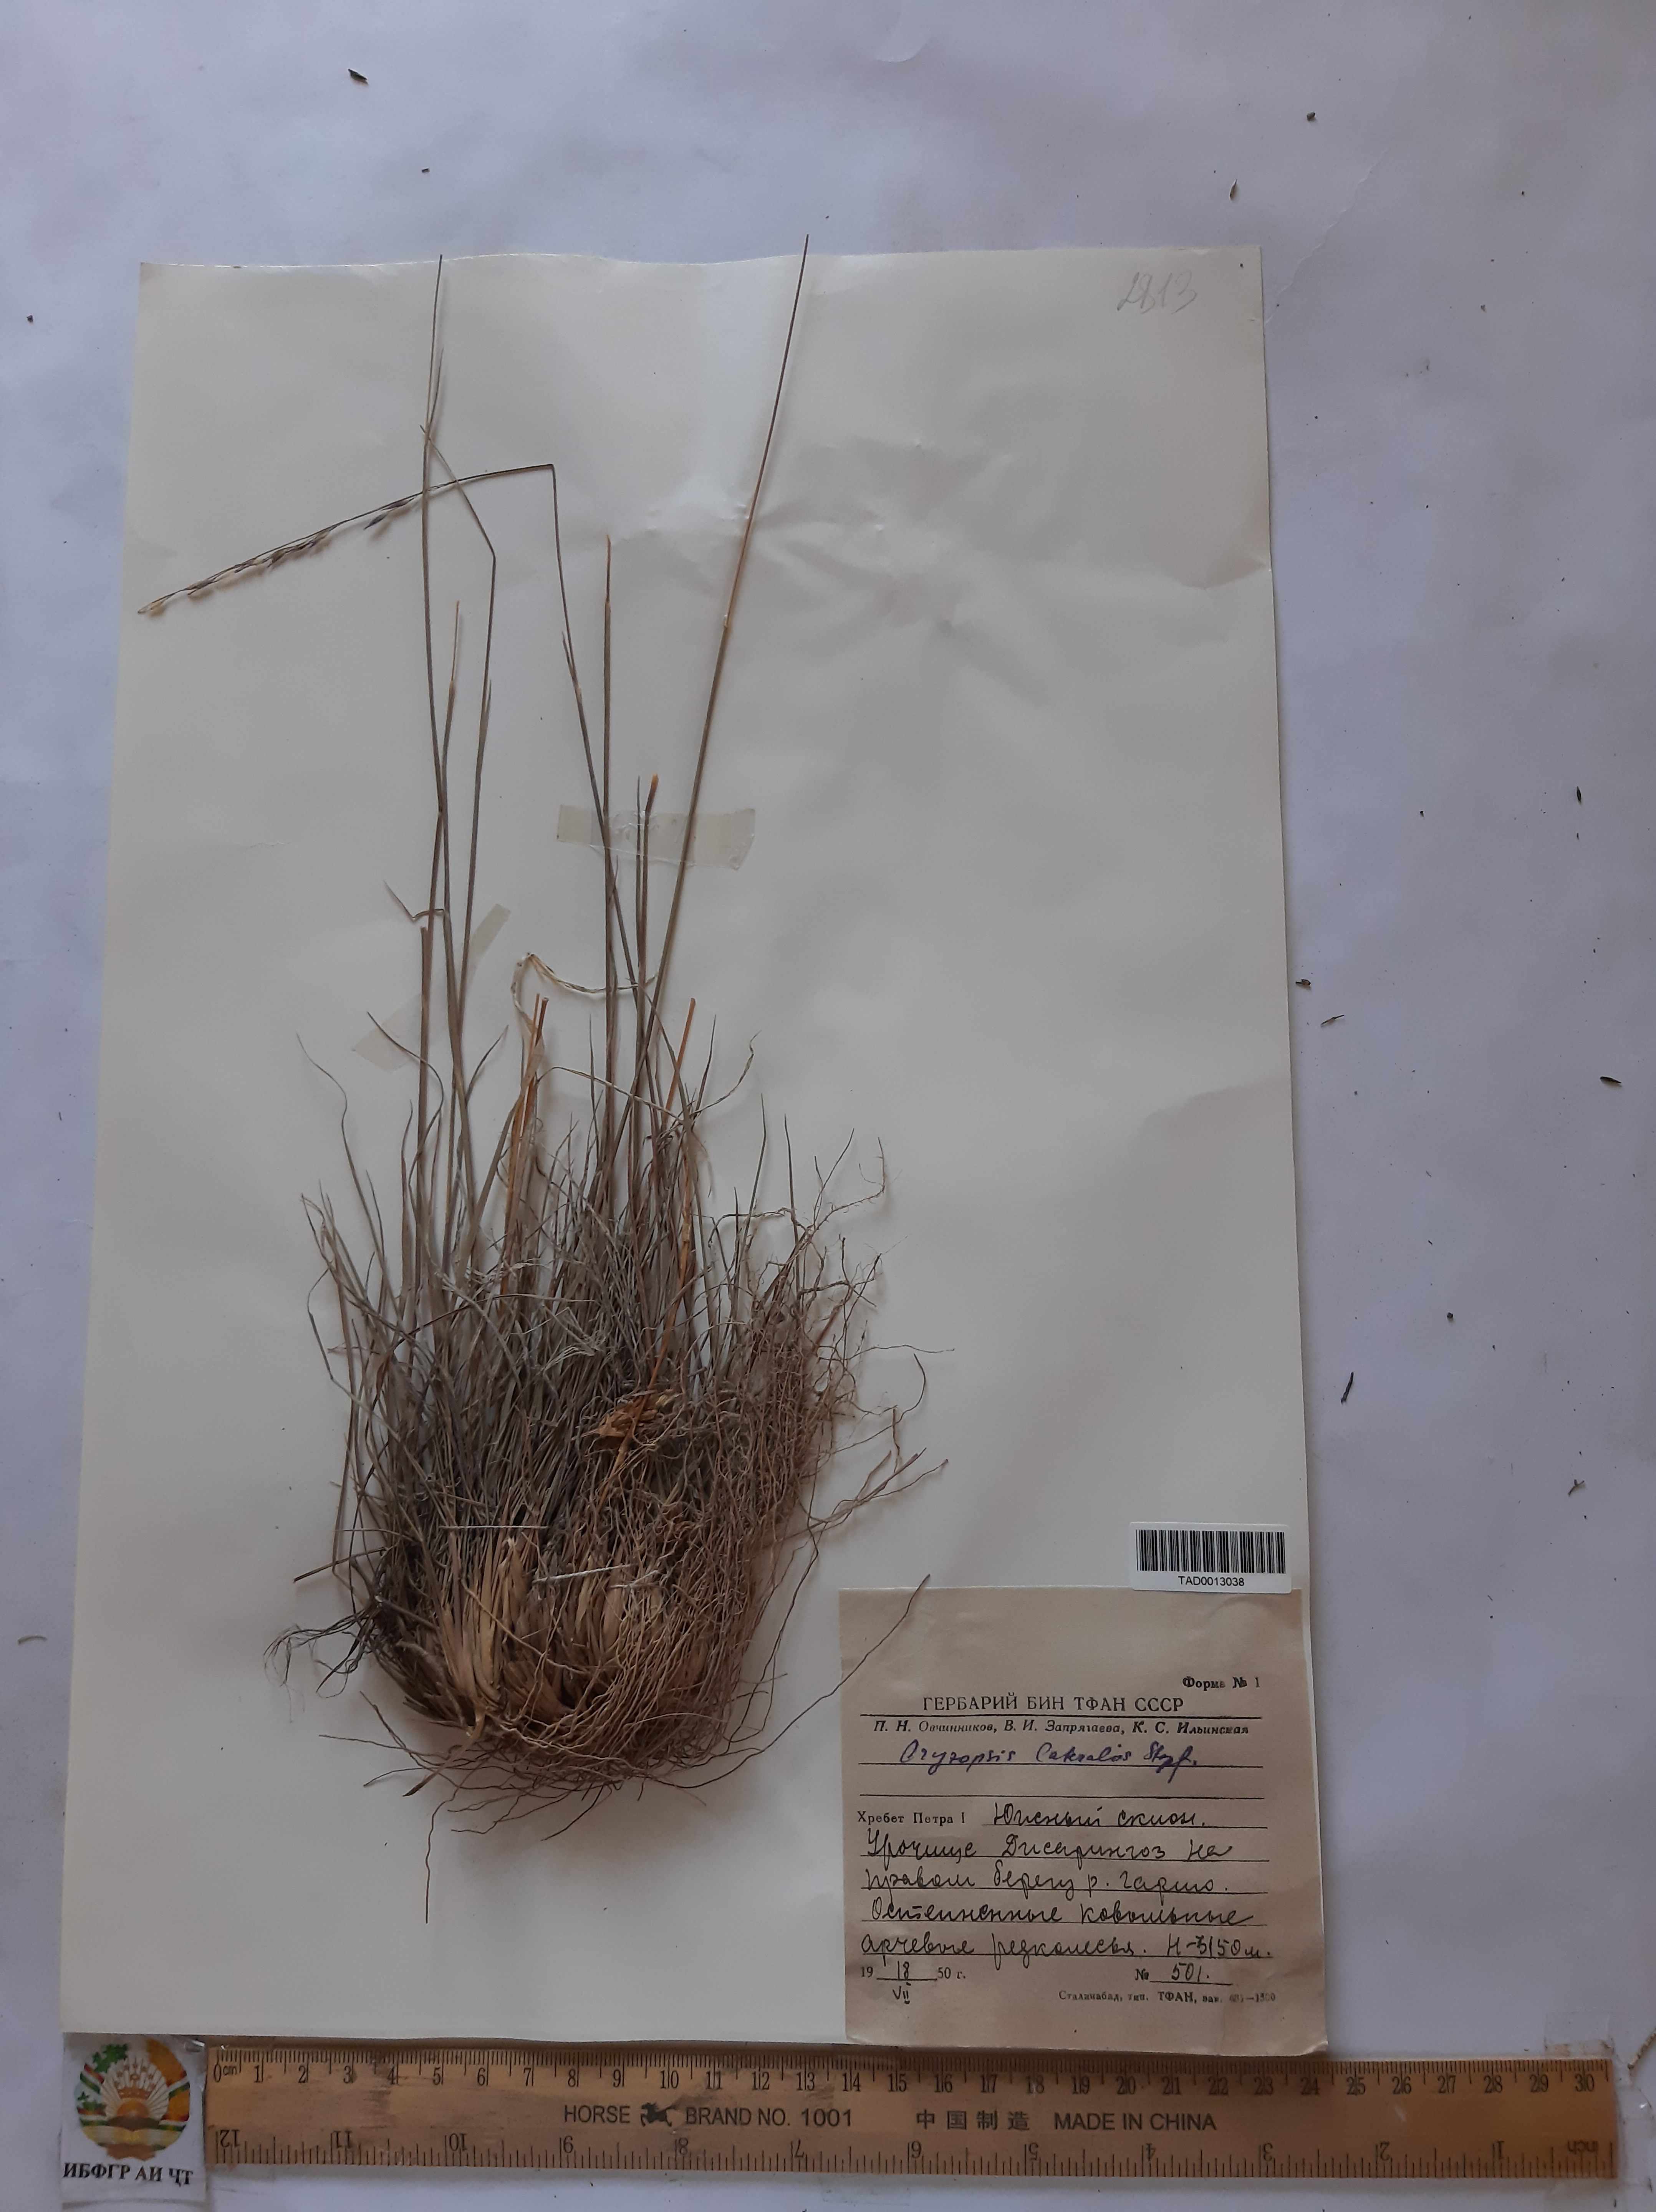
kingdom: Plantae
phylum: Tracheophyta
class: Liliopsida
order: Poales
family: Poaceae
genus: Piptatherum
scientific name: Piptatherum laterale
